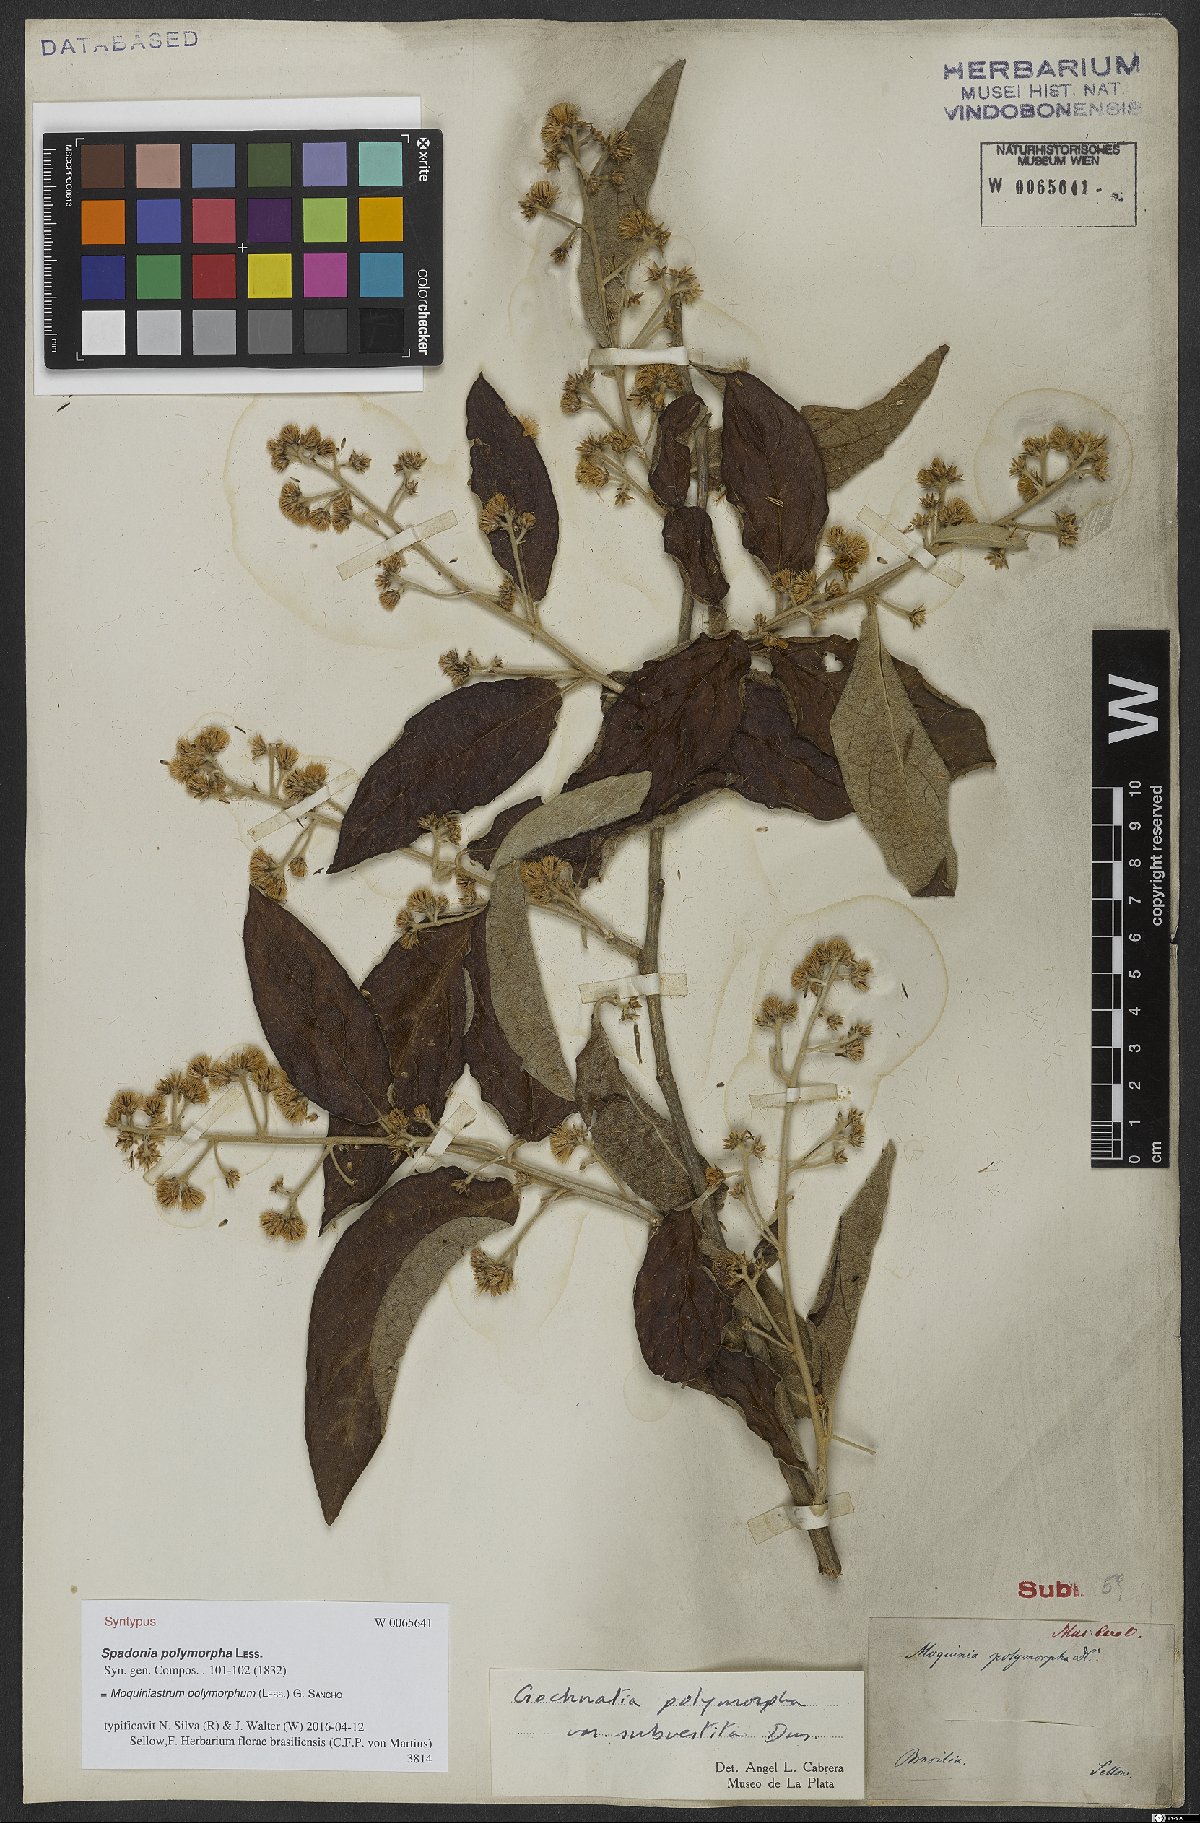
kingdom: Plantae
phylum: Tracheophyta
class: Magnoliopsida
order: Asterales
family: Asteraceae
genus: Moquiniastrum
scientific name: Moquiniastrum polymorphum
